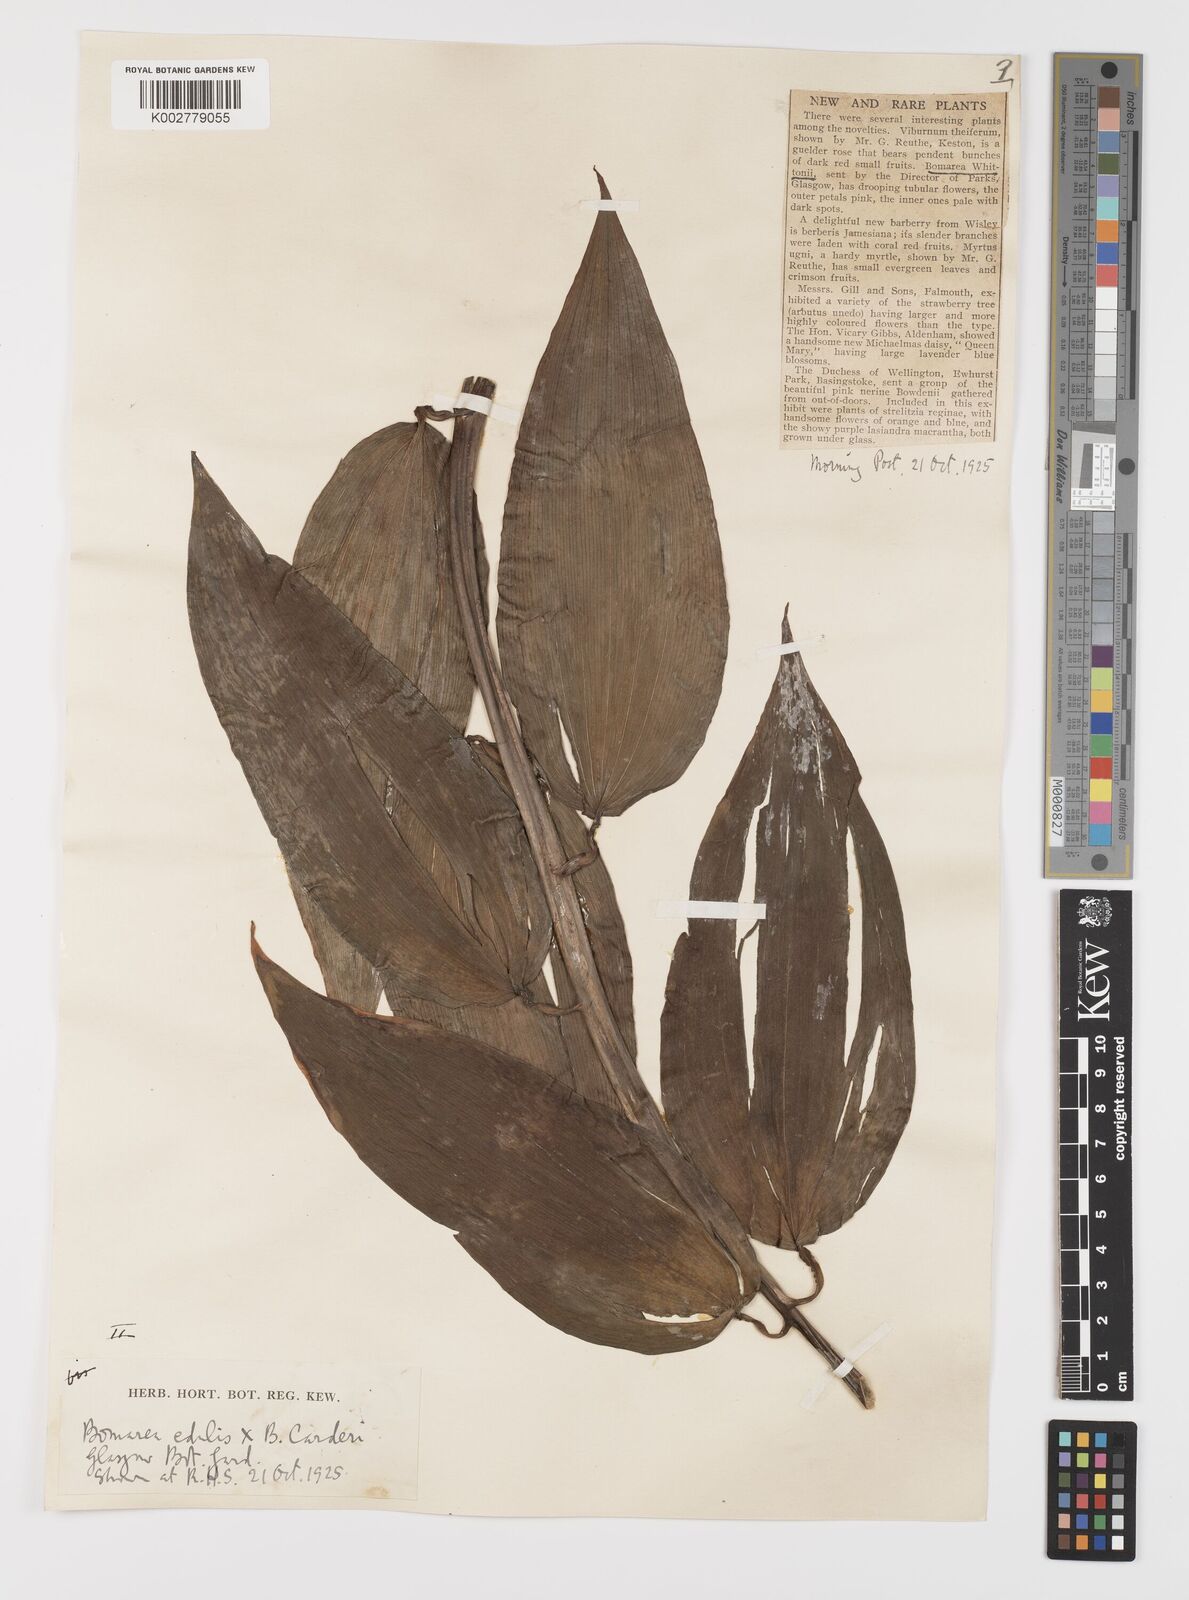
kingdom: Plantae
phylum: Tracheophyta
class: Liliopsida
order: Liliales
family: Alstroemeriaceae
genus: Bomarea
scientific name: Bomarea
